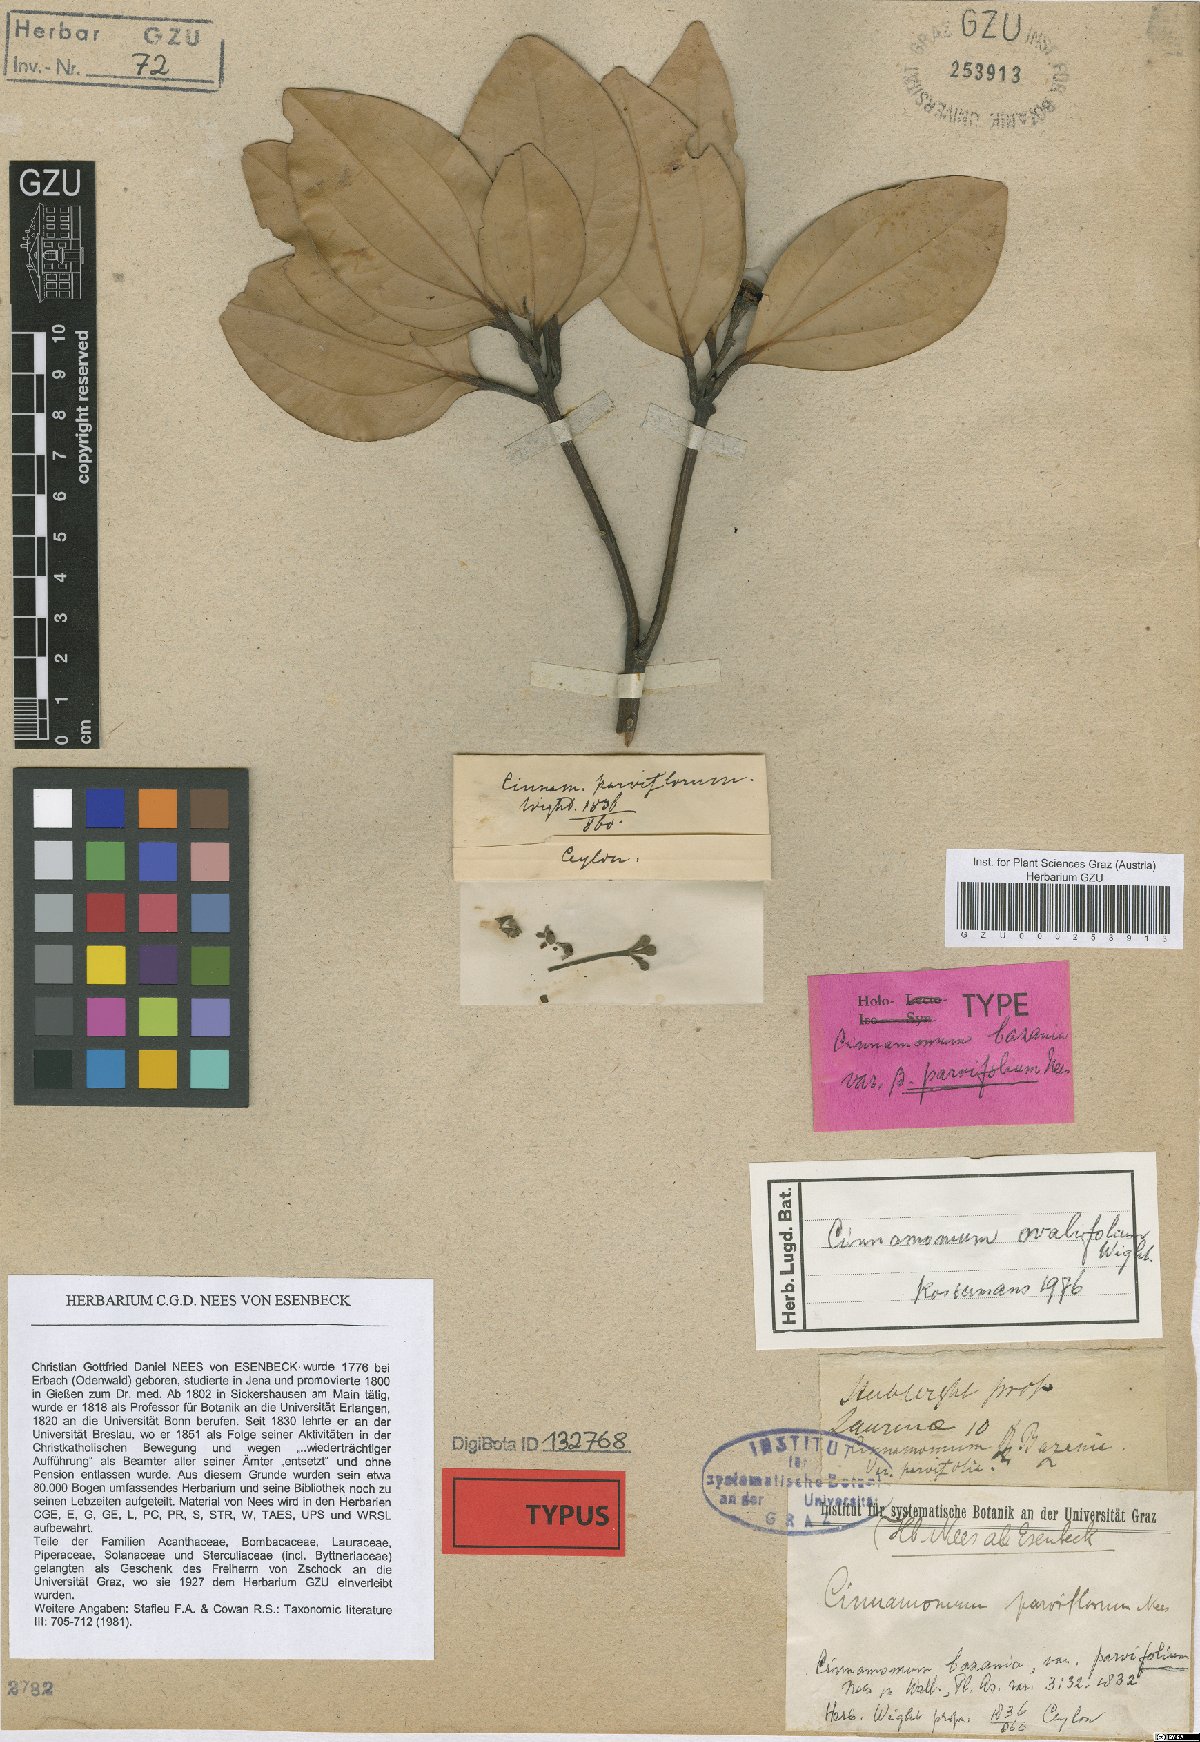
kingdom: Plantae
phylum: Tracheophyta
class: Magnoliopsida
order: Laurales
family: Lauraceae
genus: Cinnamomum
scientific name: Cinnamomum bejolghota
